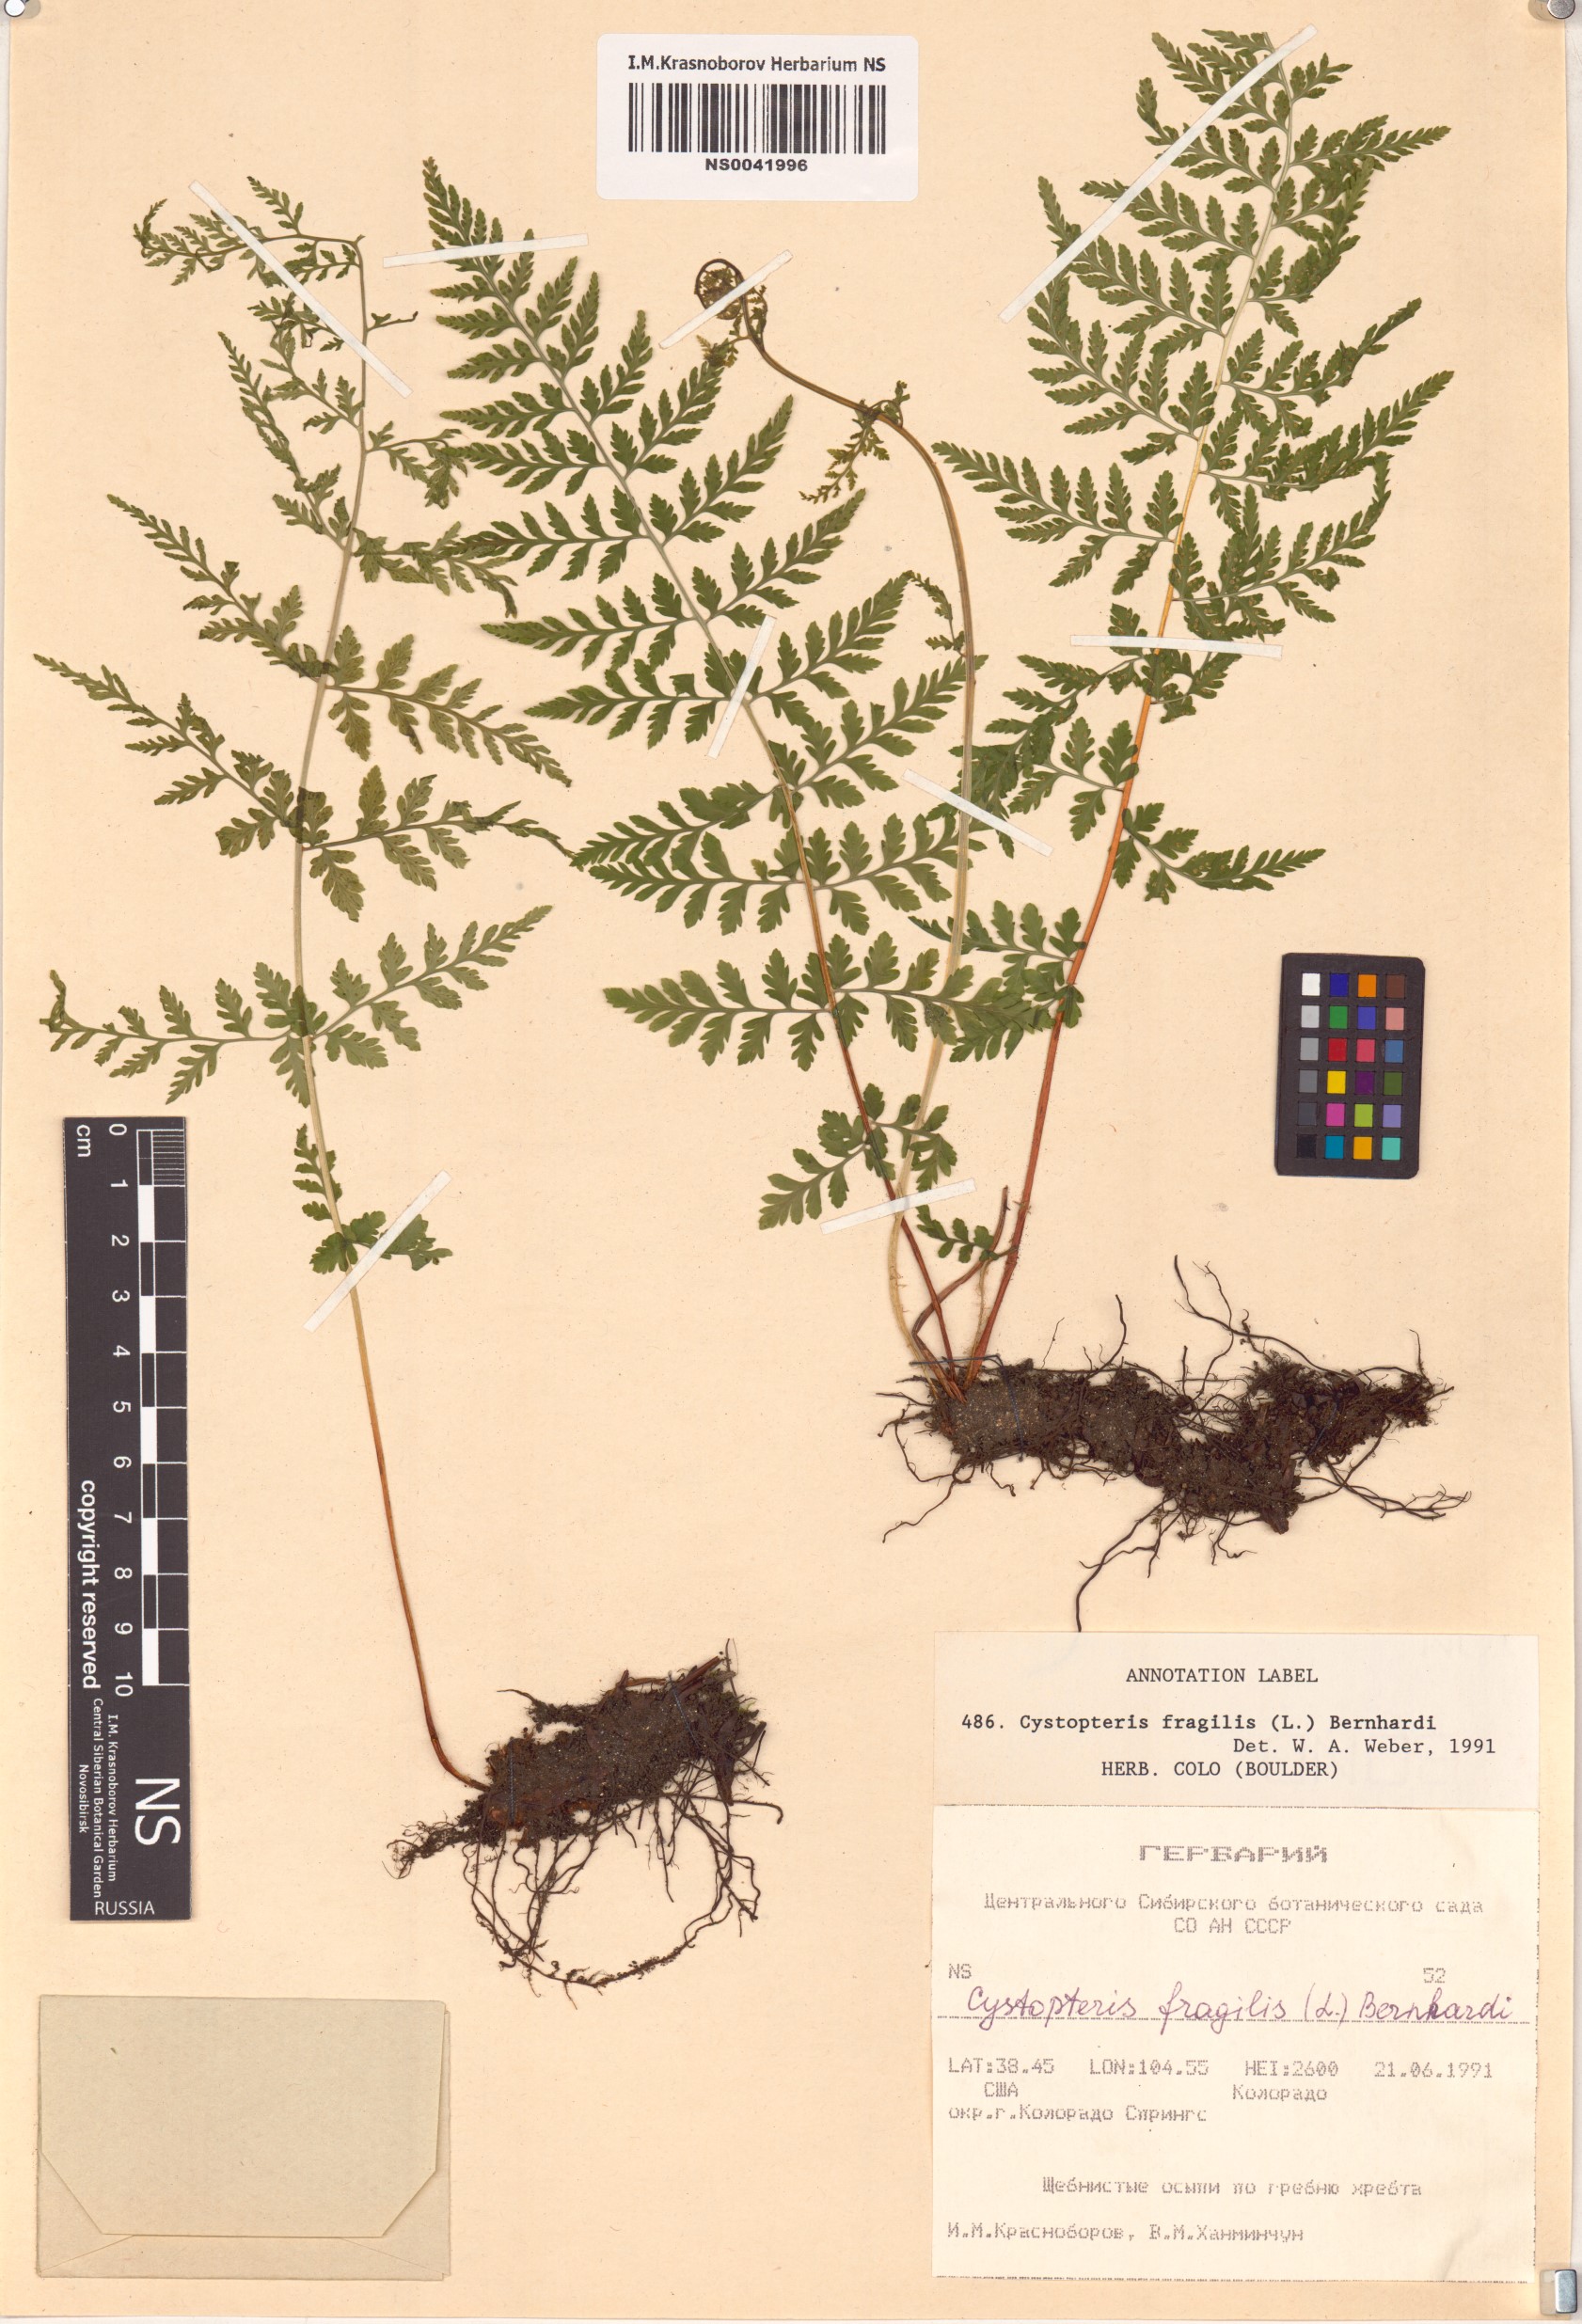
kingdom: Plantae
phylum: Tracheophyta
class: Polypodiopsida
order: Polypodiales
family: Cystopteridaceae
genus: Cystopteris
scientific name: Cystopteris fragilis
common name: Brittle bladder fern
